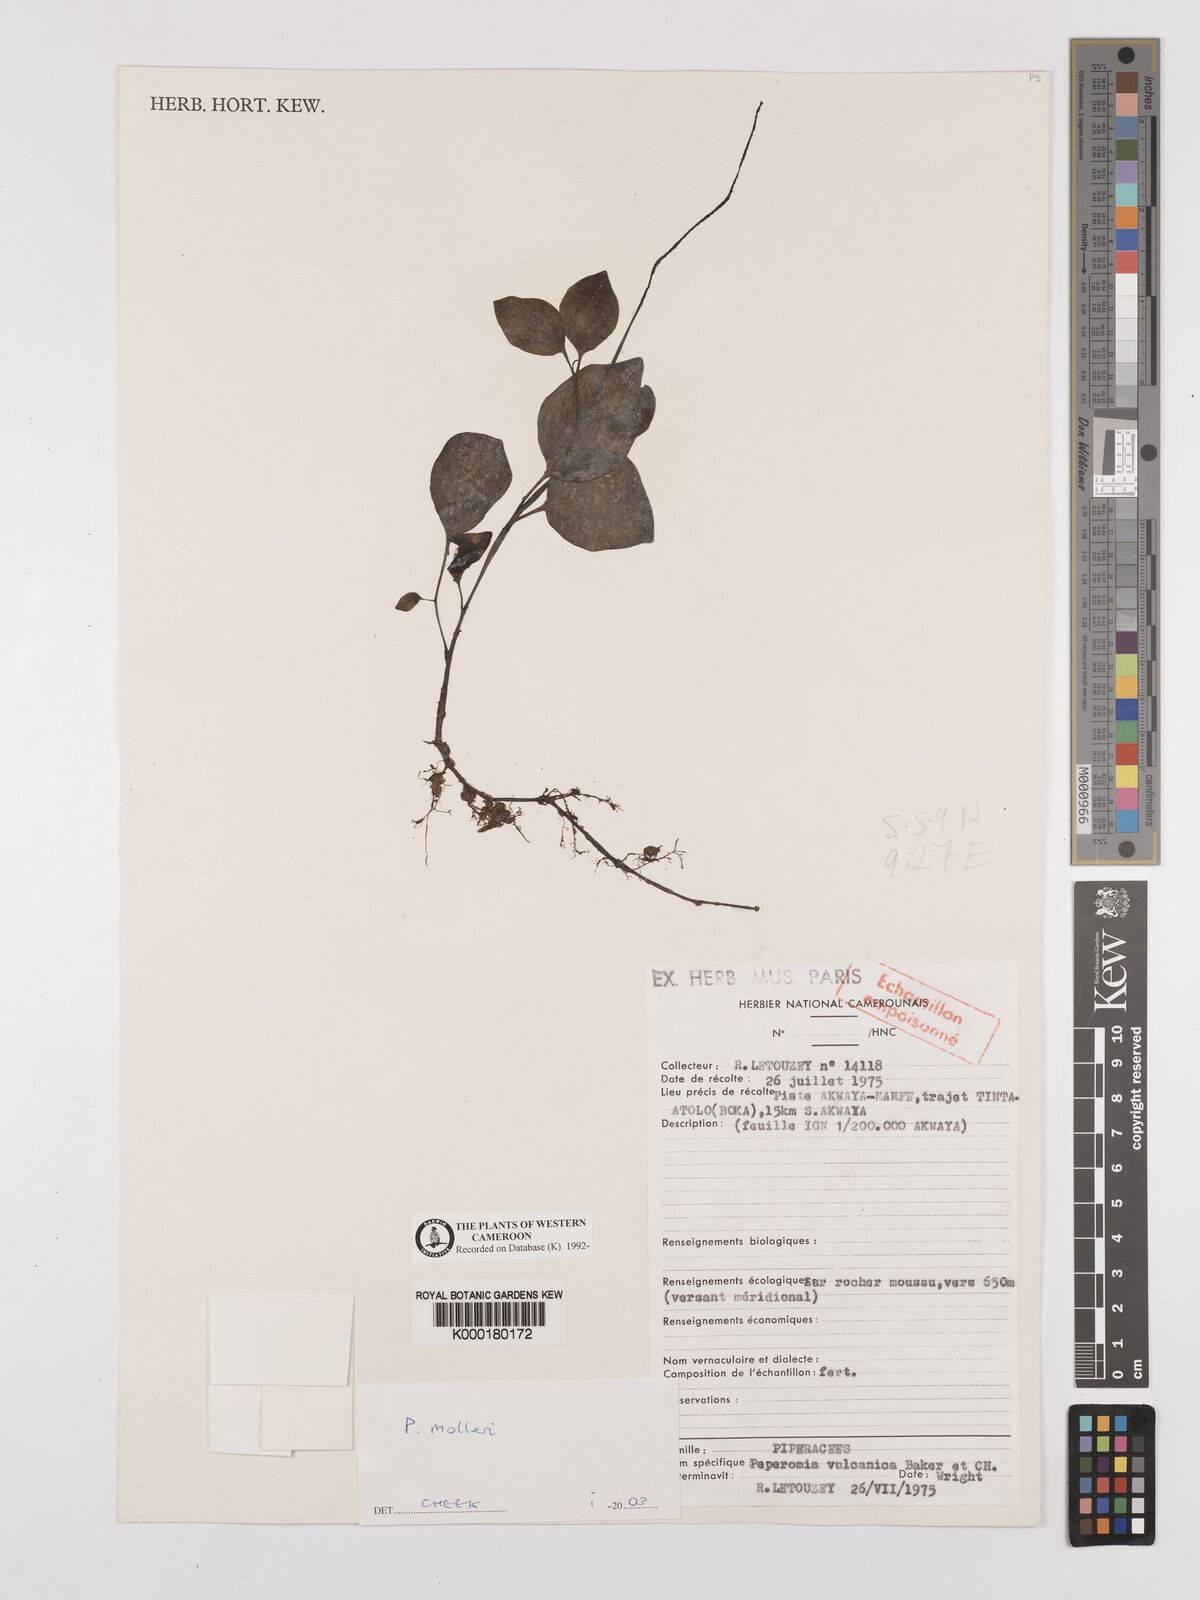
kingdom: Plantae
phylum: Tracheophyta
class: Magnoliopsida
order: Piperales
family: Piperaceae
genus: Peperomia
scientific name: Peperomia molleri
